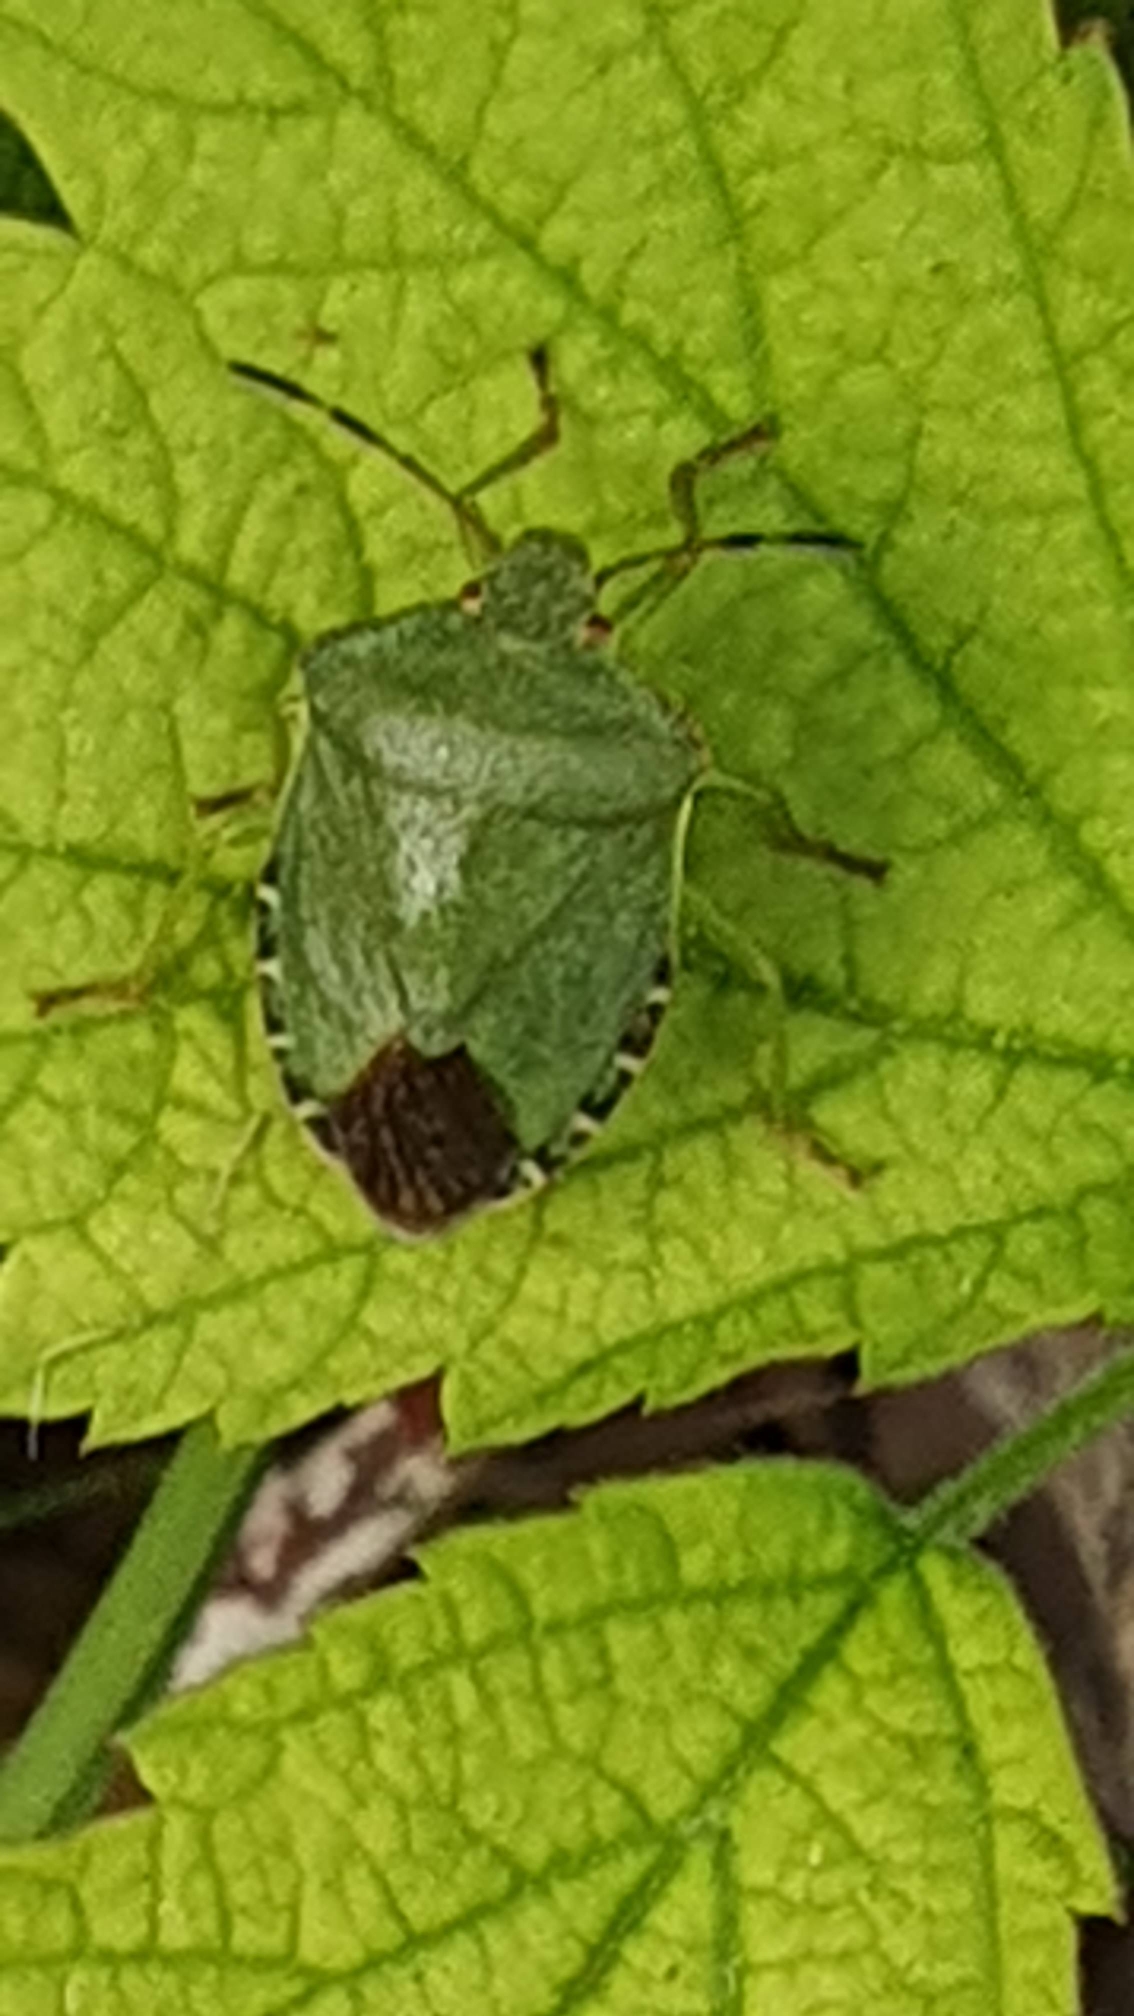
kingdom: Animalia
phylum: Arthropoda
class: Insecta
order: Hemiptera
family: Pentatomidae
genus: Palomena
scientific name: Palomena prasina
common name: Grøn bredtæge
